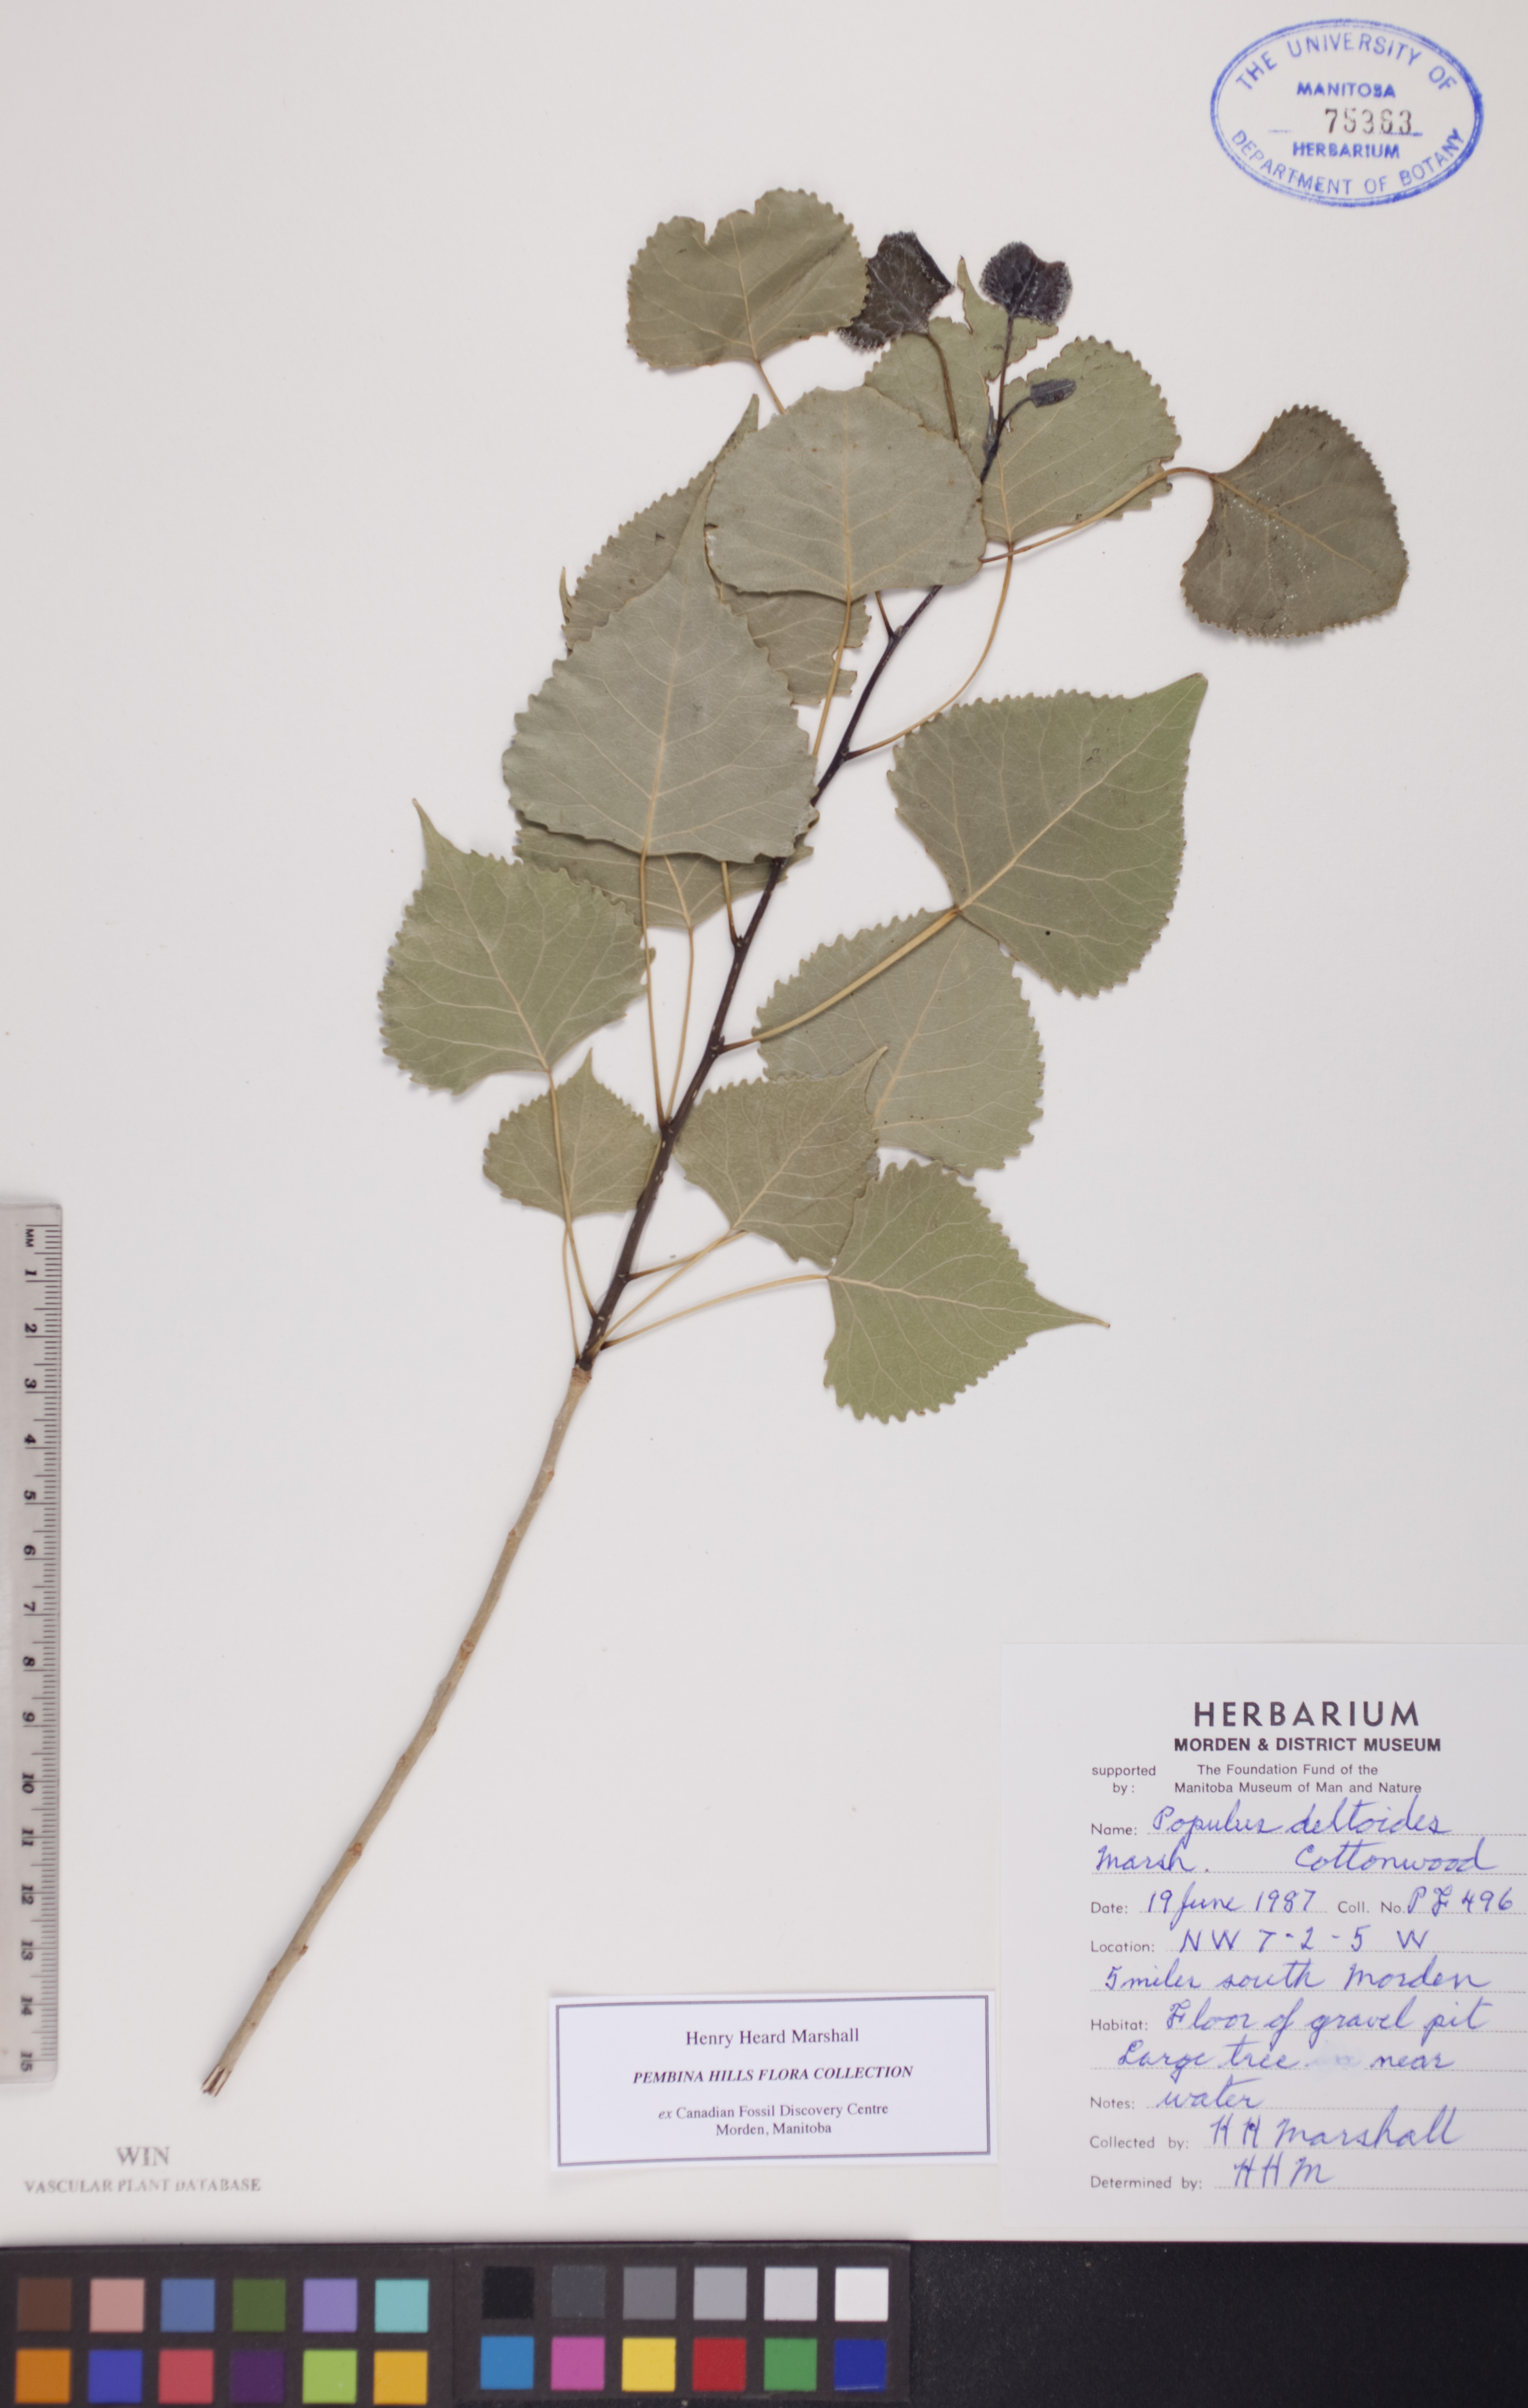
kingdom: Plantae
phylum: Tracheophyta
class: Magnoliopsida
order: Malpighiales
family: Salicaceae
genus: Populus
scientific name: Populus deltoides
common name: Eastern cottonwood
